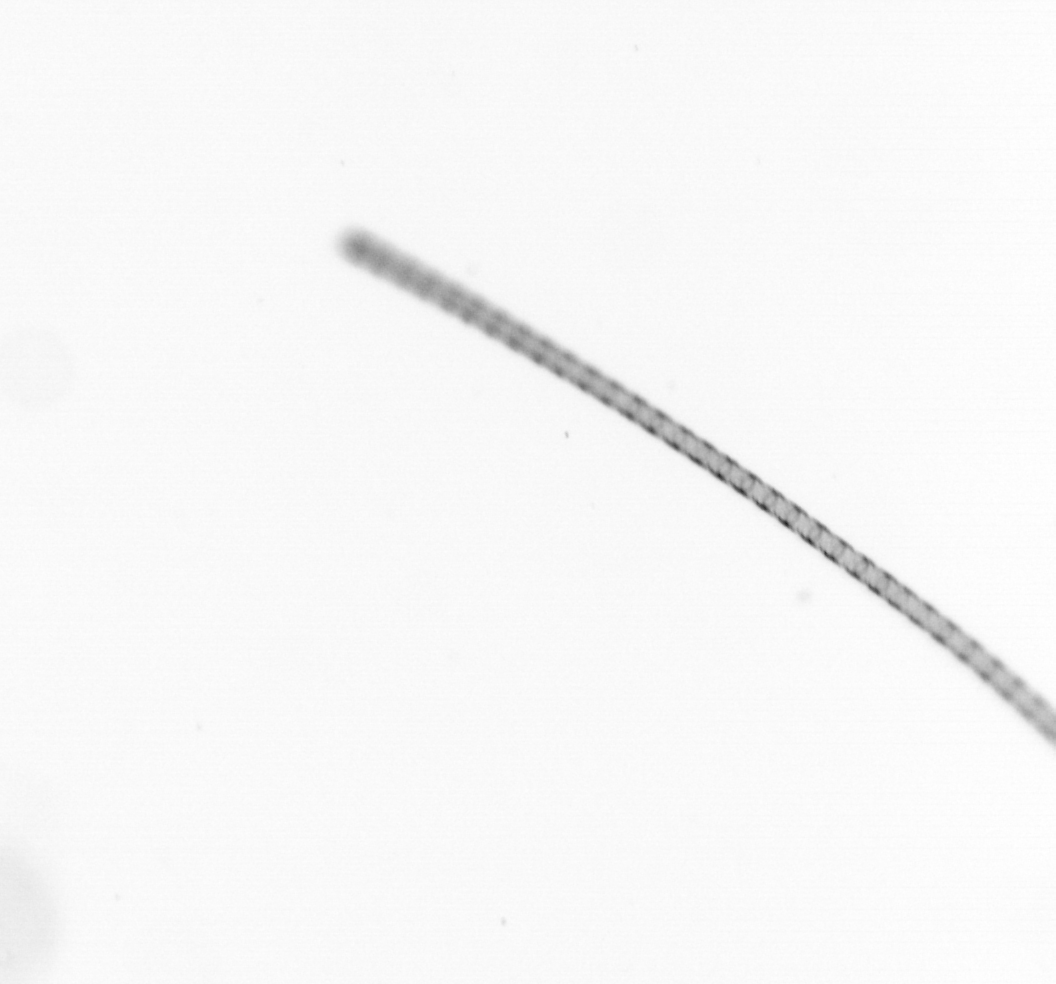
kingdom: Chromista
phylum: Ochrophyta
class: Bacillariophyceae
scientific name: Bacillariophyceae
